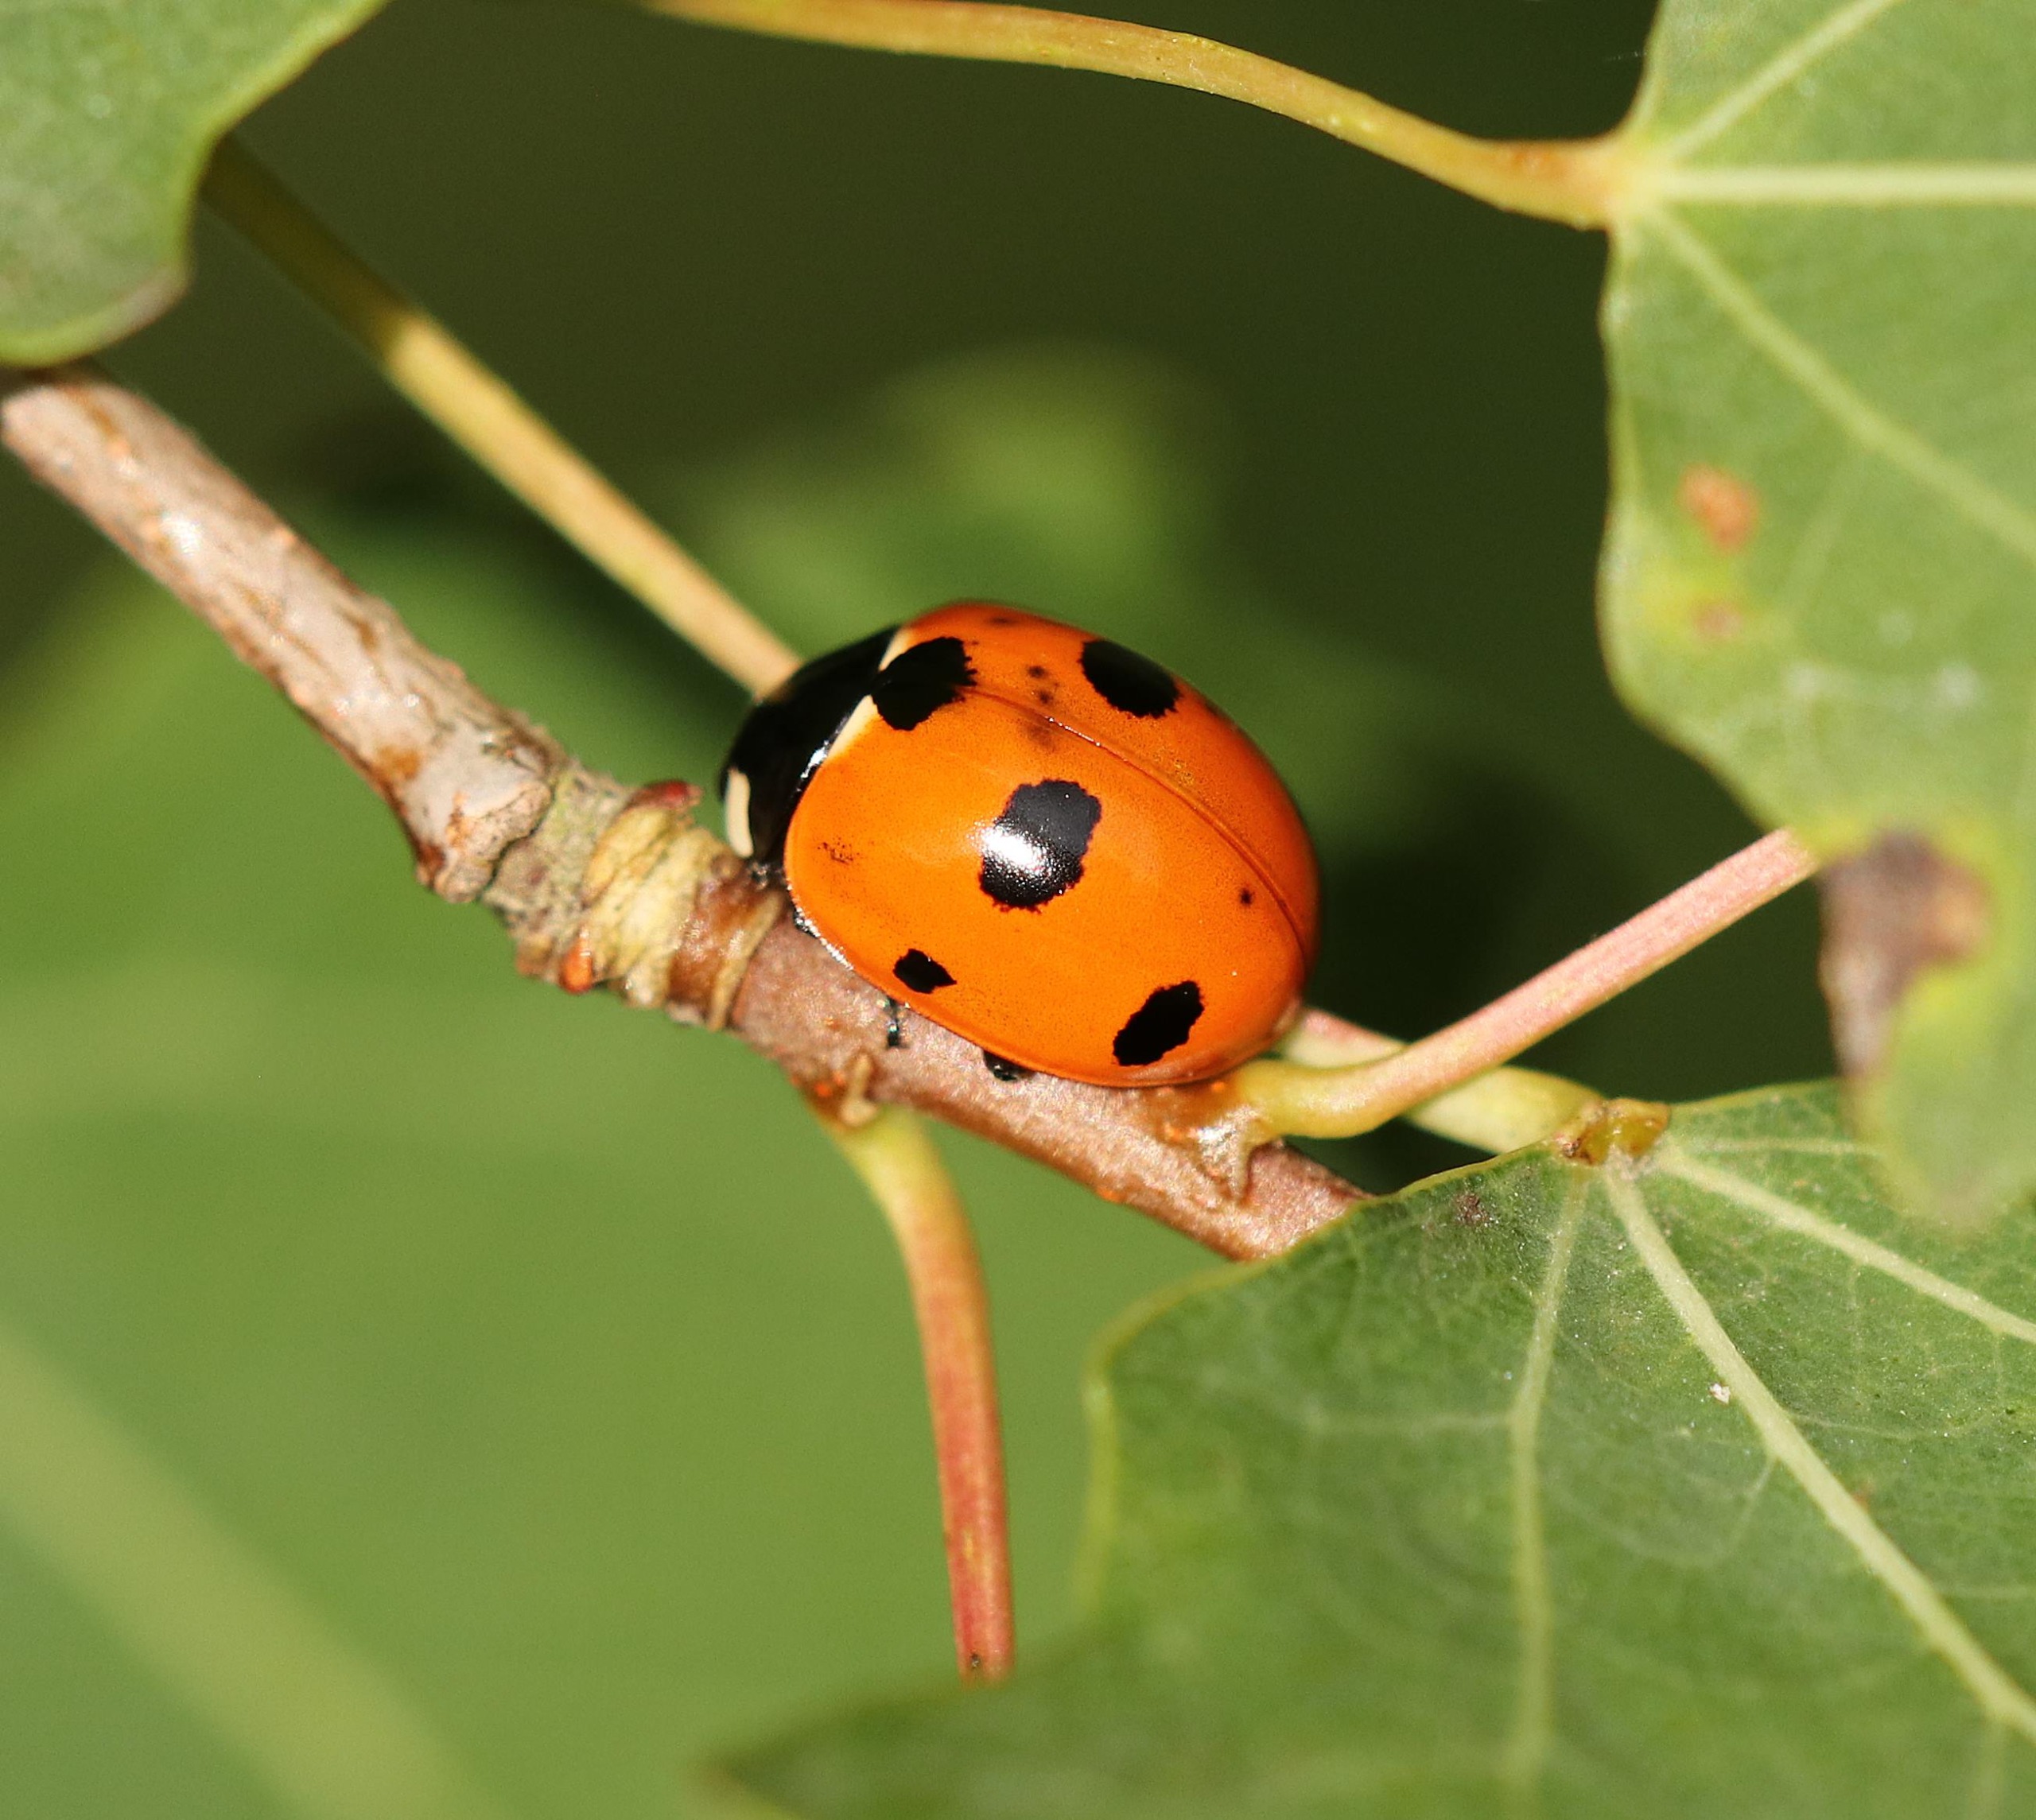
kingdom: Animalia
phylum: Arthropoda
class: Insecta
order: Coleoptera
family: Coccinellidae
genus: Coccinella
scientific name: Coccinella septempunctata
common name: Syvplettet mariehøne
